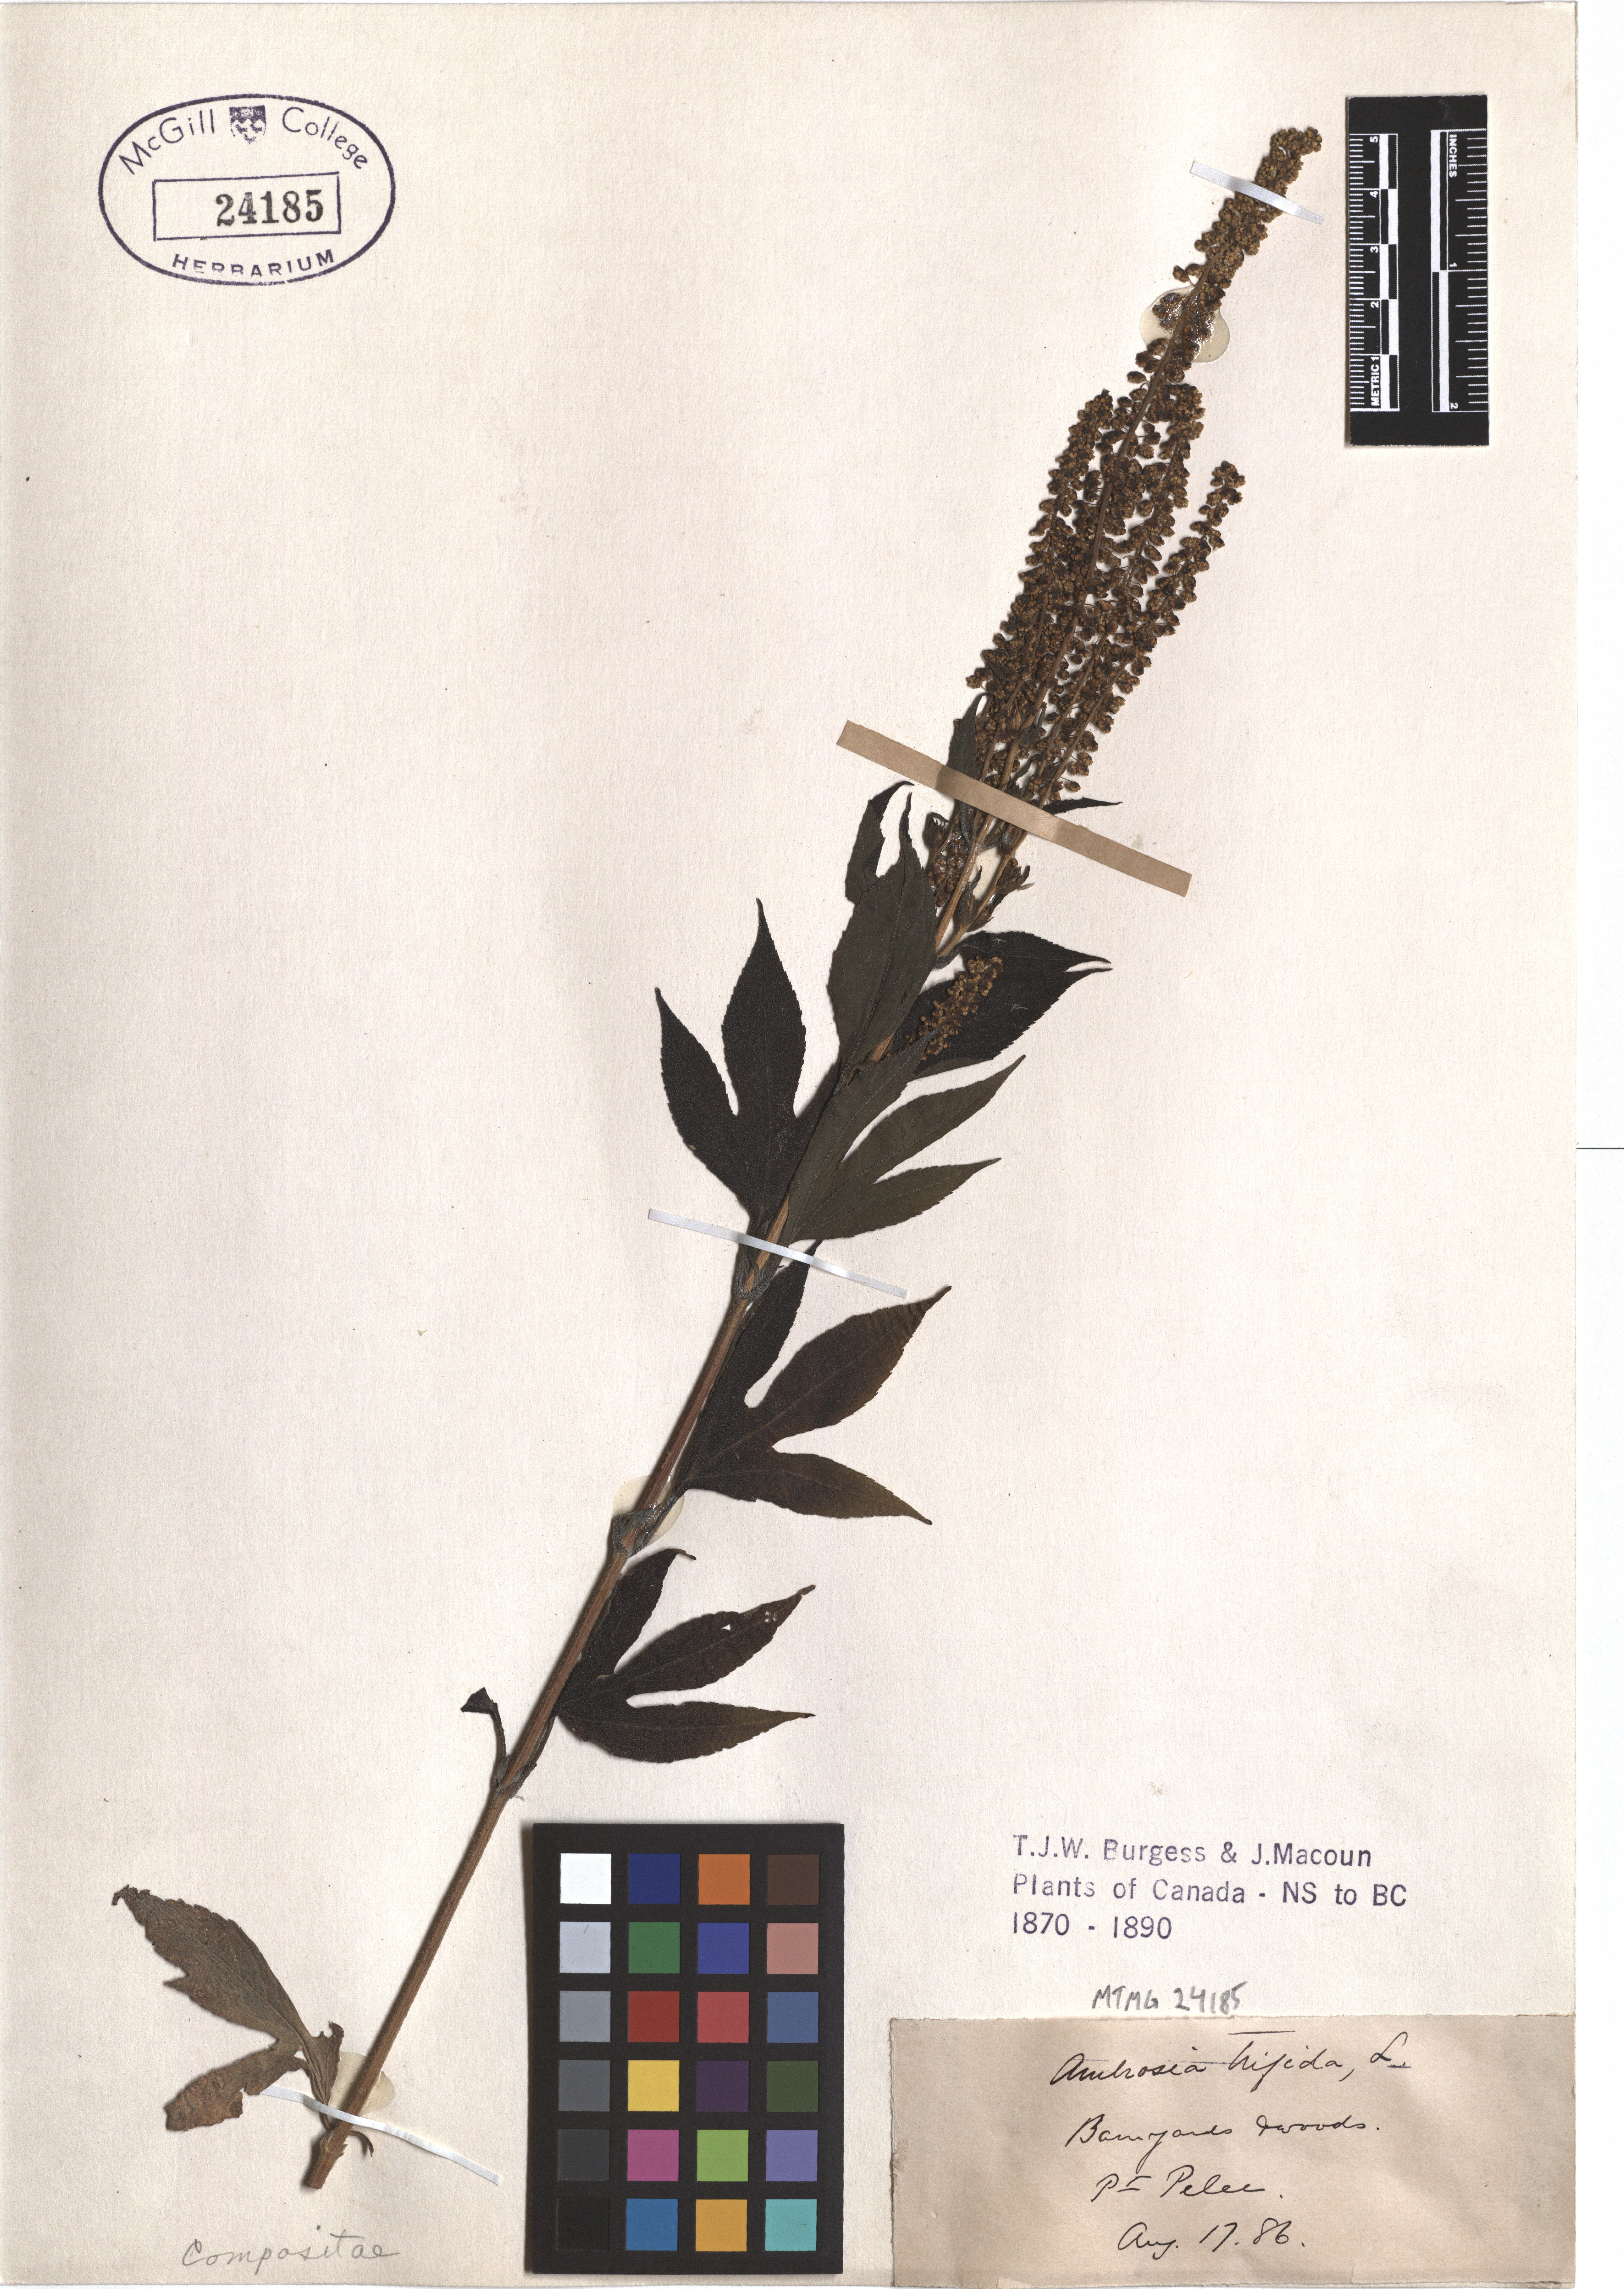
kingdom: Plantae
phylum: Tracheophyta
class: Magnoliopsida
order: Asterales
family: Asteraceae
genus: Ambrosia
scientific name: Ambrosia trifida
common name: Giant ragweed
